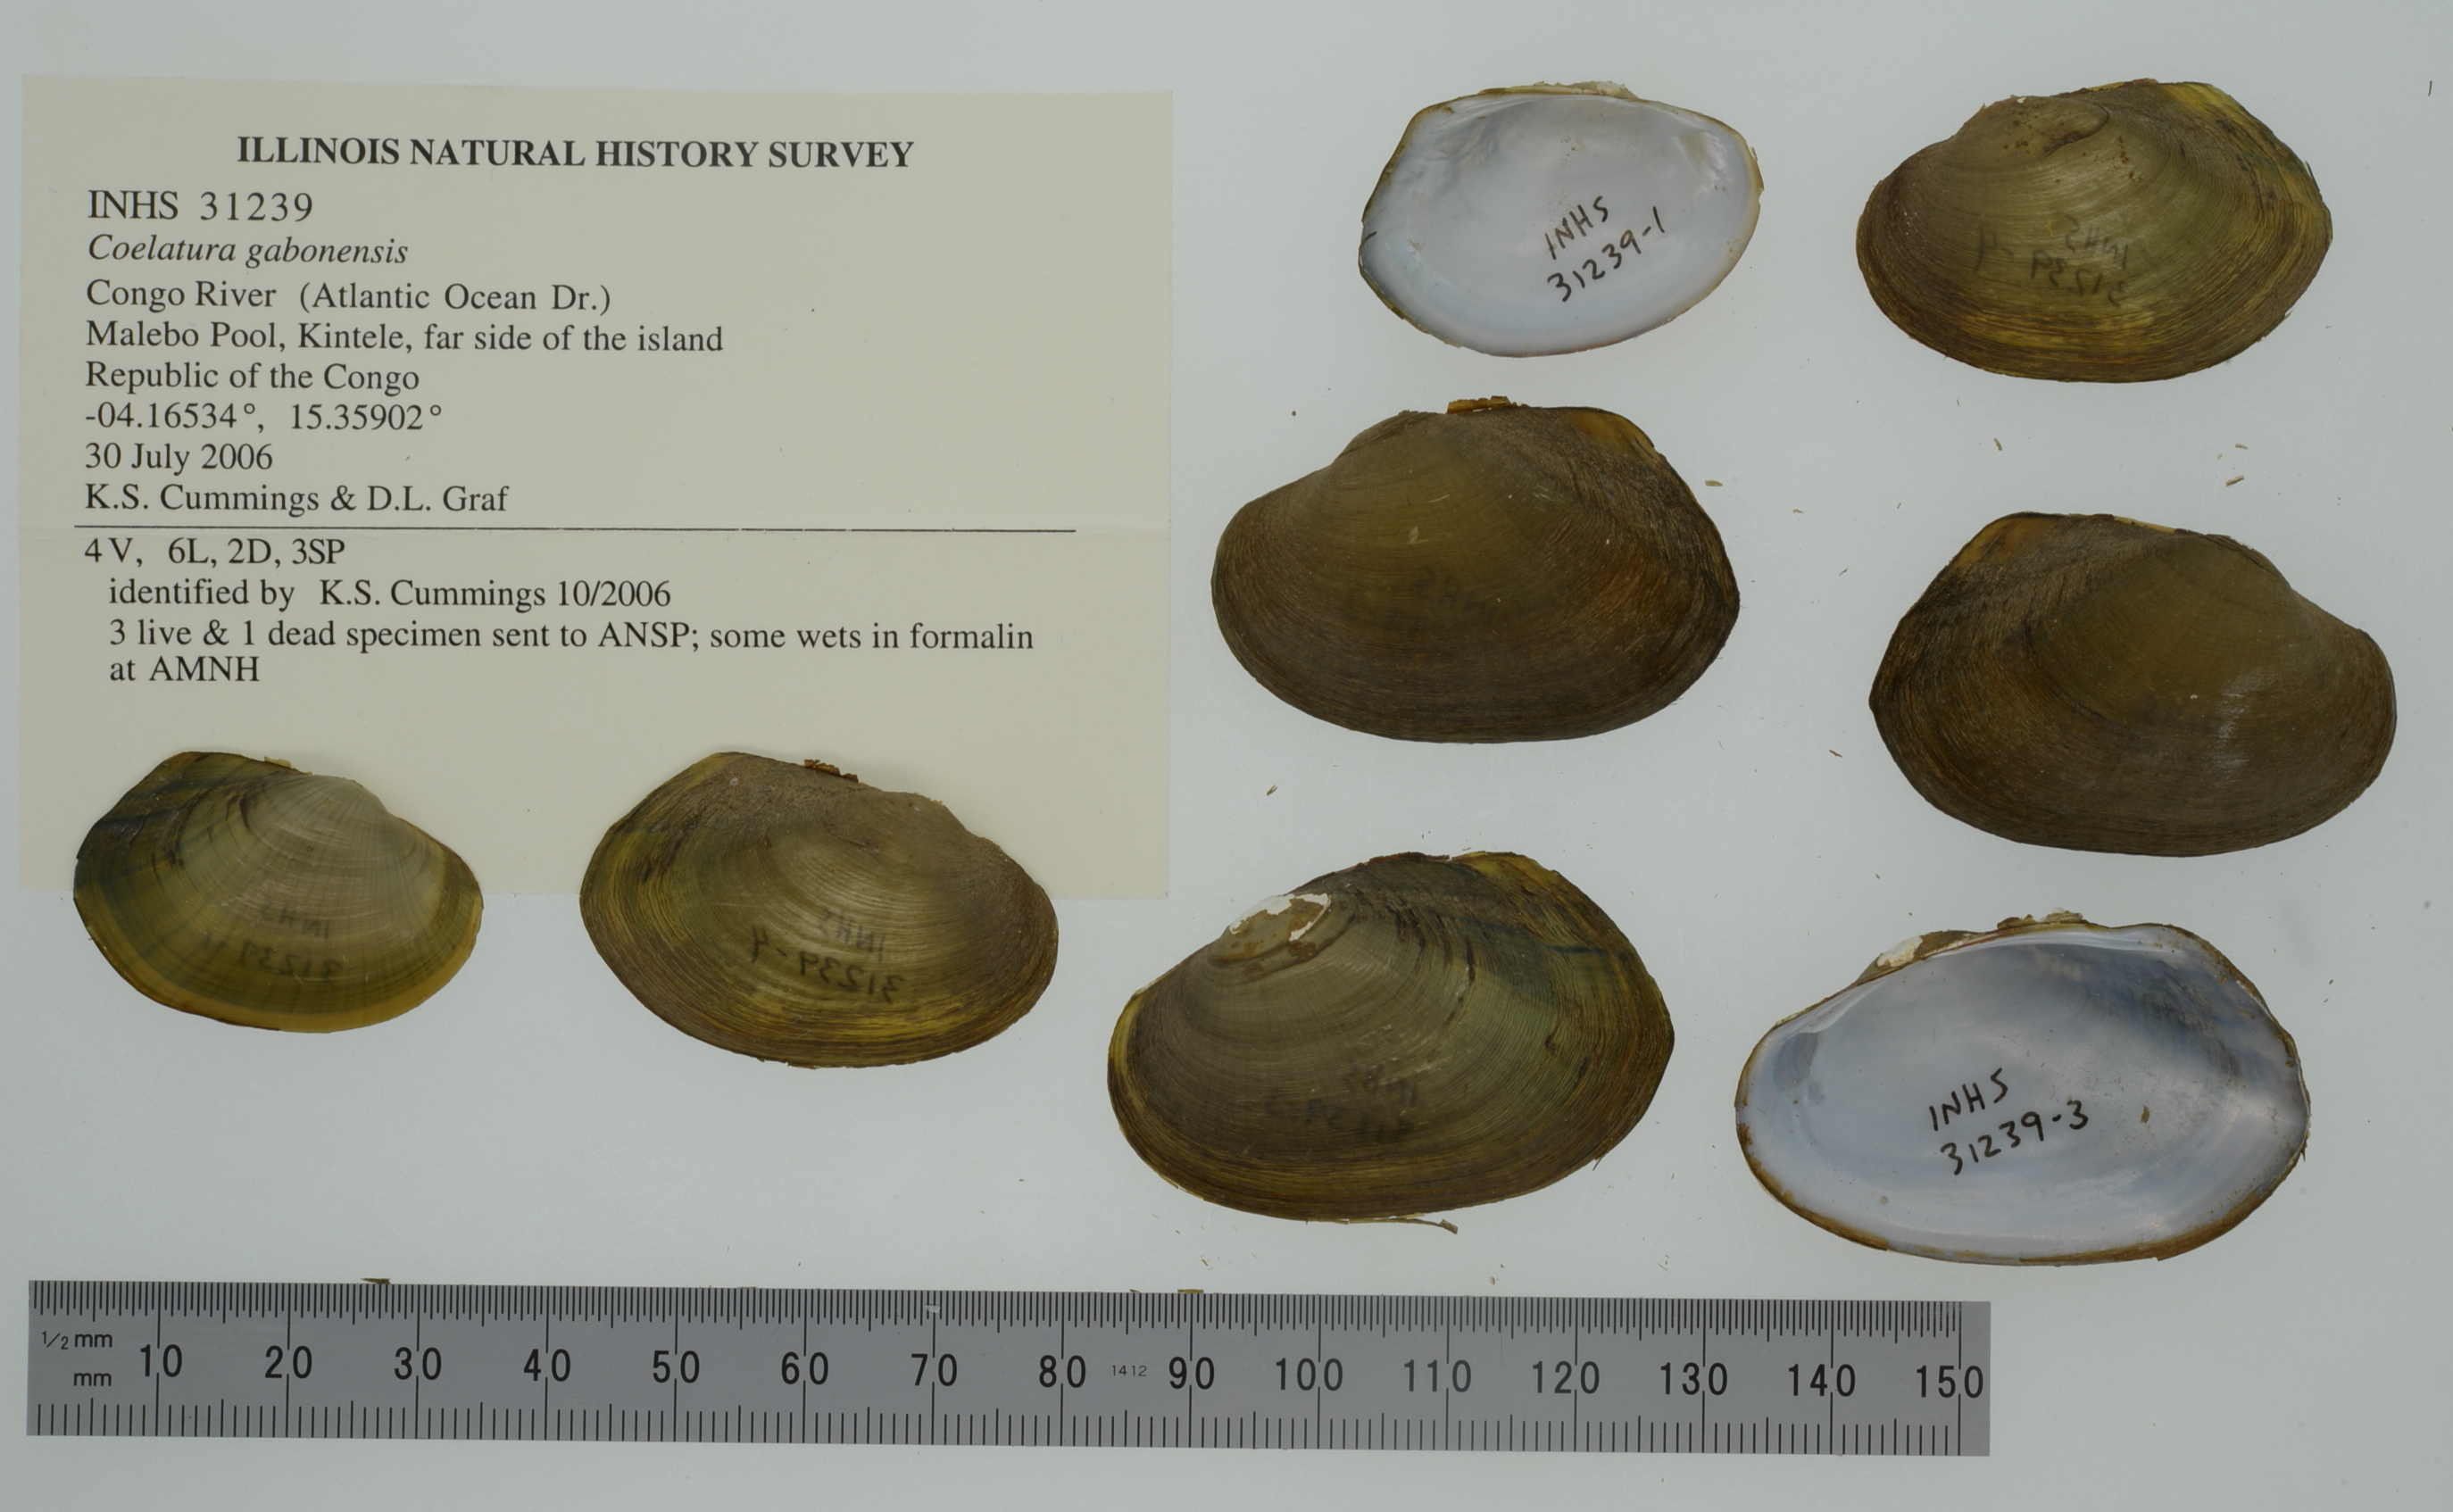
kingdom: Animalia
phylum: Mollusca
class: Bivalvia
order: Unionida
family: Unionidae
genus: Coelatura
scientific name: Coelatura gabonensis
